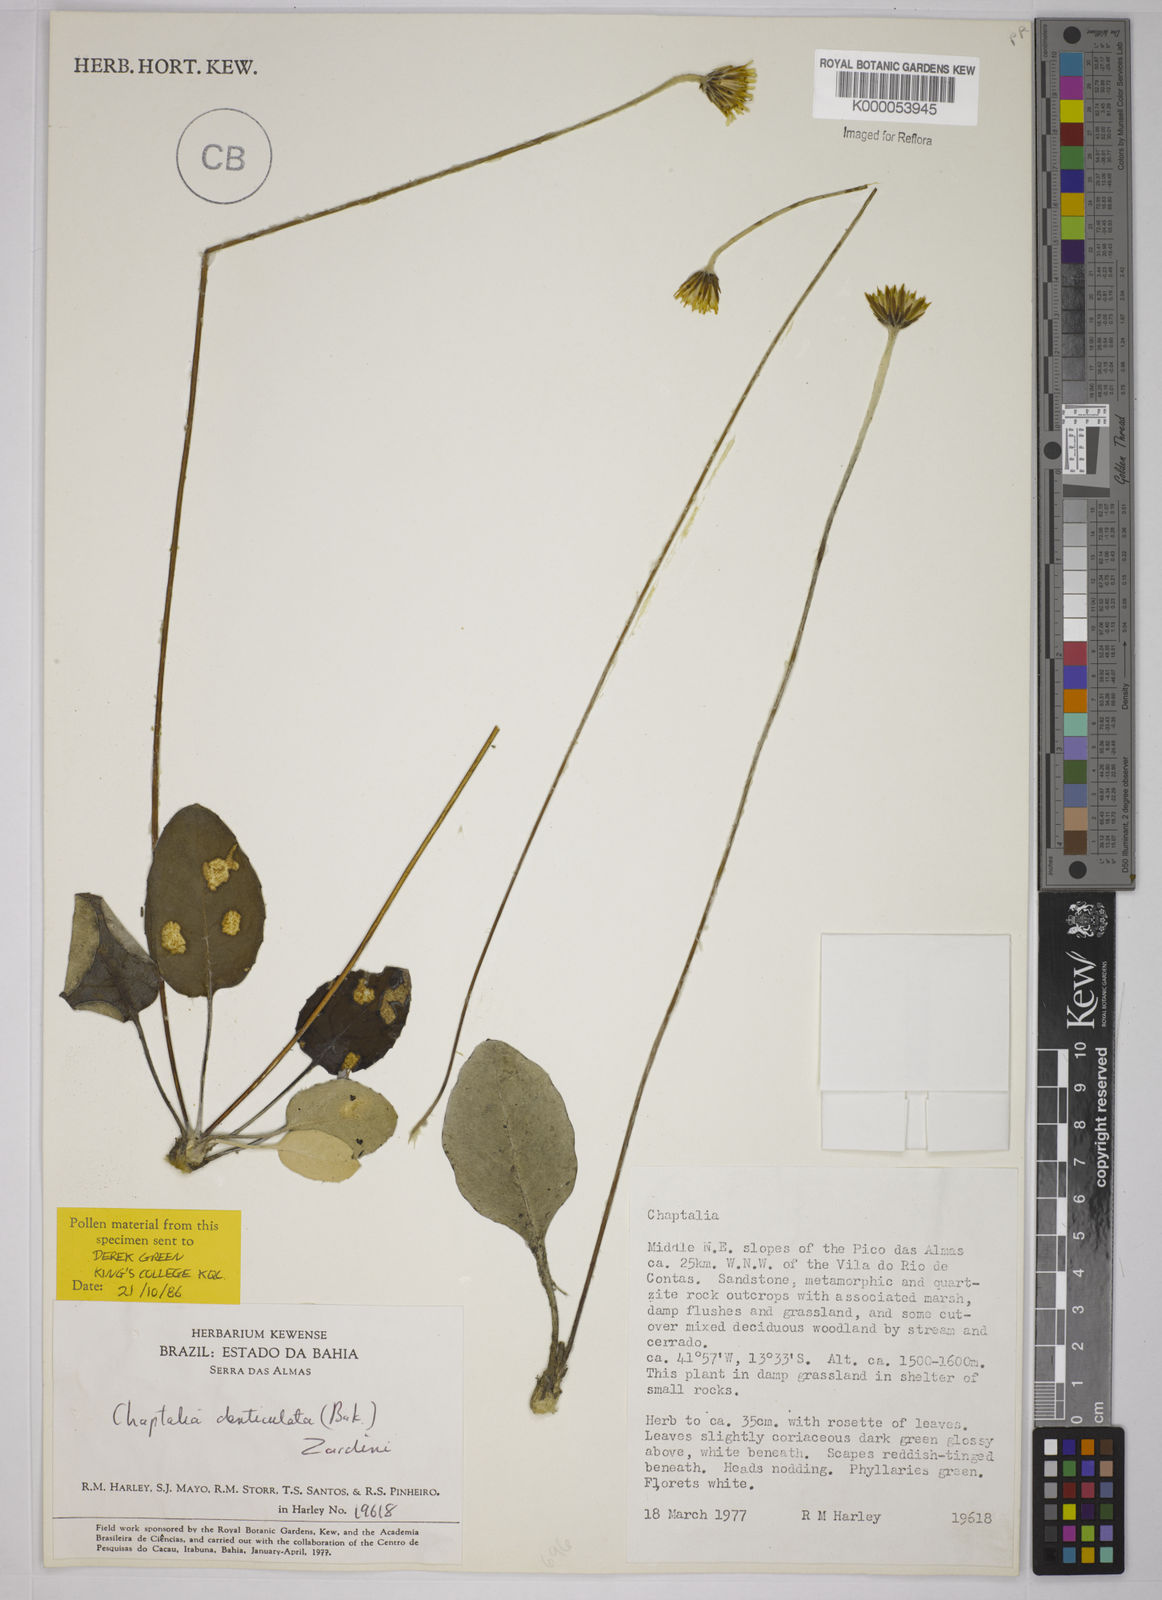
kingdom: Plantae
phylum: Tracheophyta
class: Magnoliopsida
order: Asterales
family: Asteraceae
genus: Chaptalia
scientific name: Chaptalia denticulata
